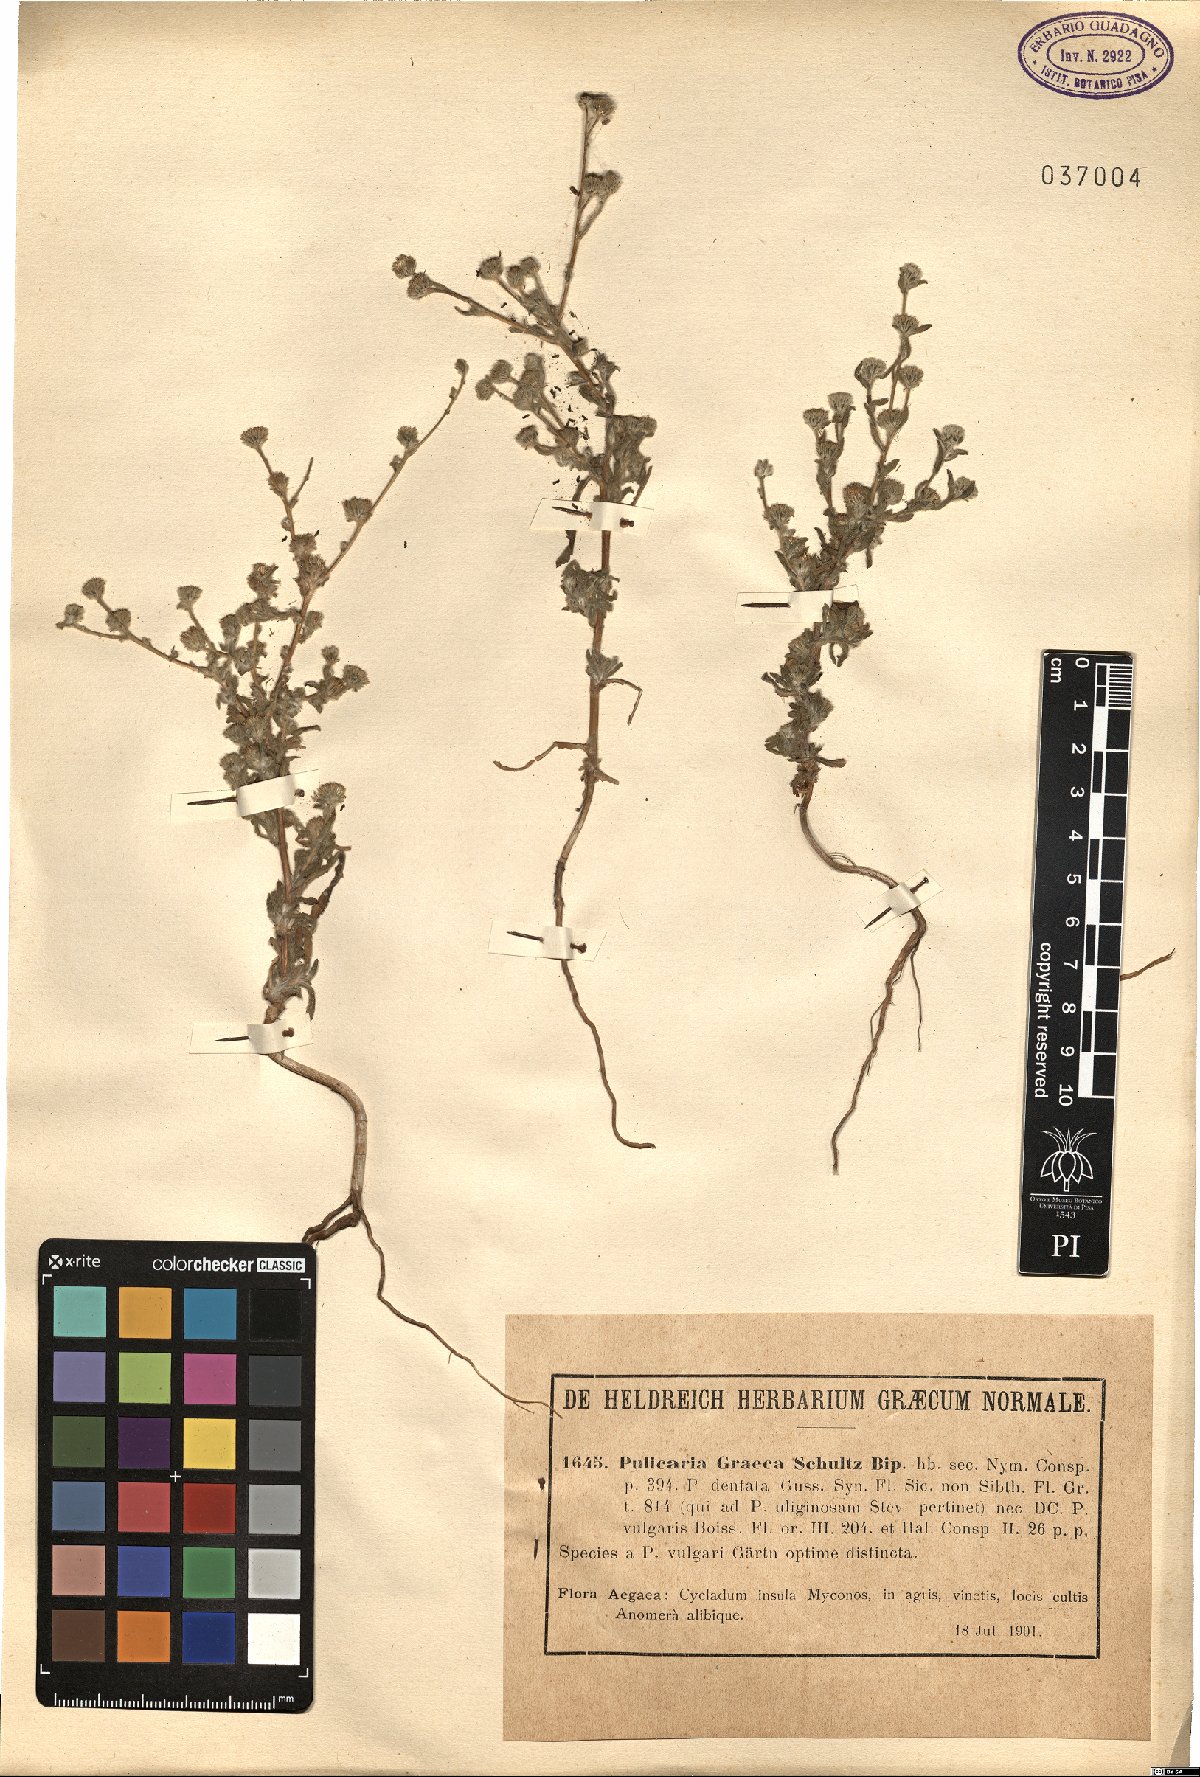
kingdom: Plantae
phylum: Tracheophyta
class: Magnoliopsida
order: Asterales
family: Asteraceae
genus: Pulicaria
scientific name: Pulicaria vulgaris
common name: Small fleabane
